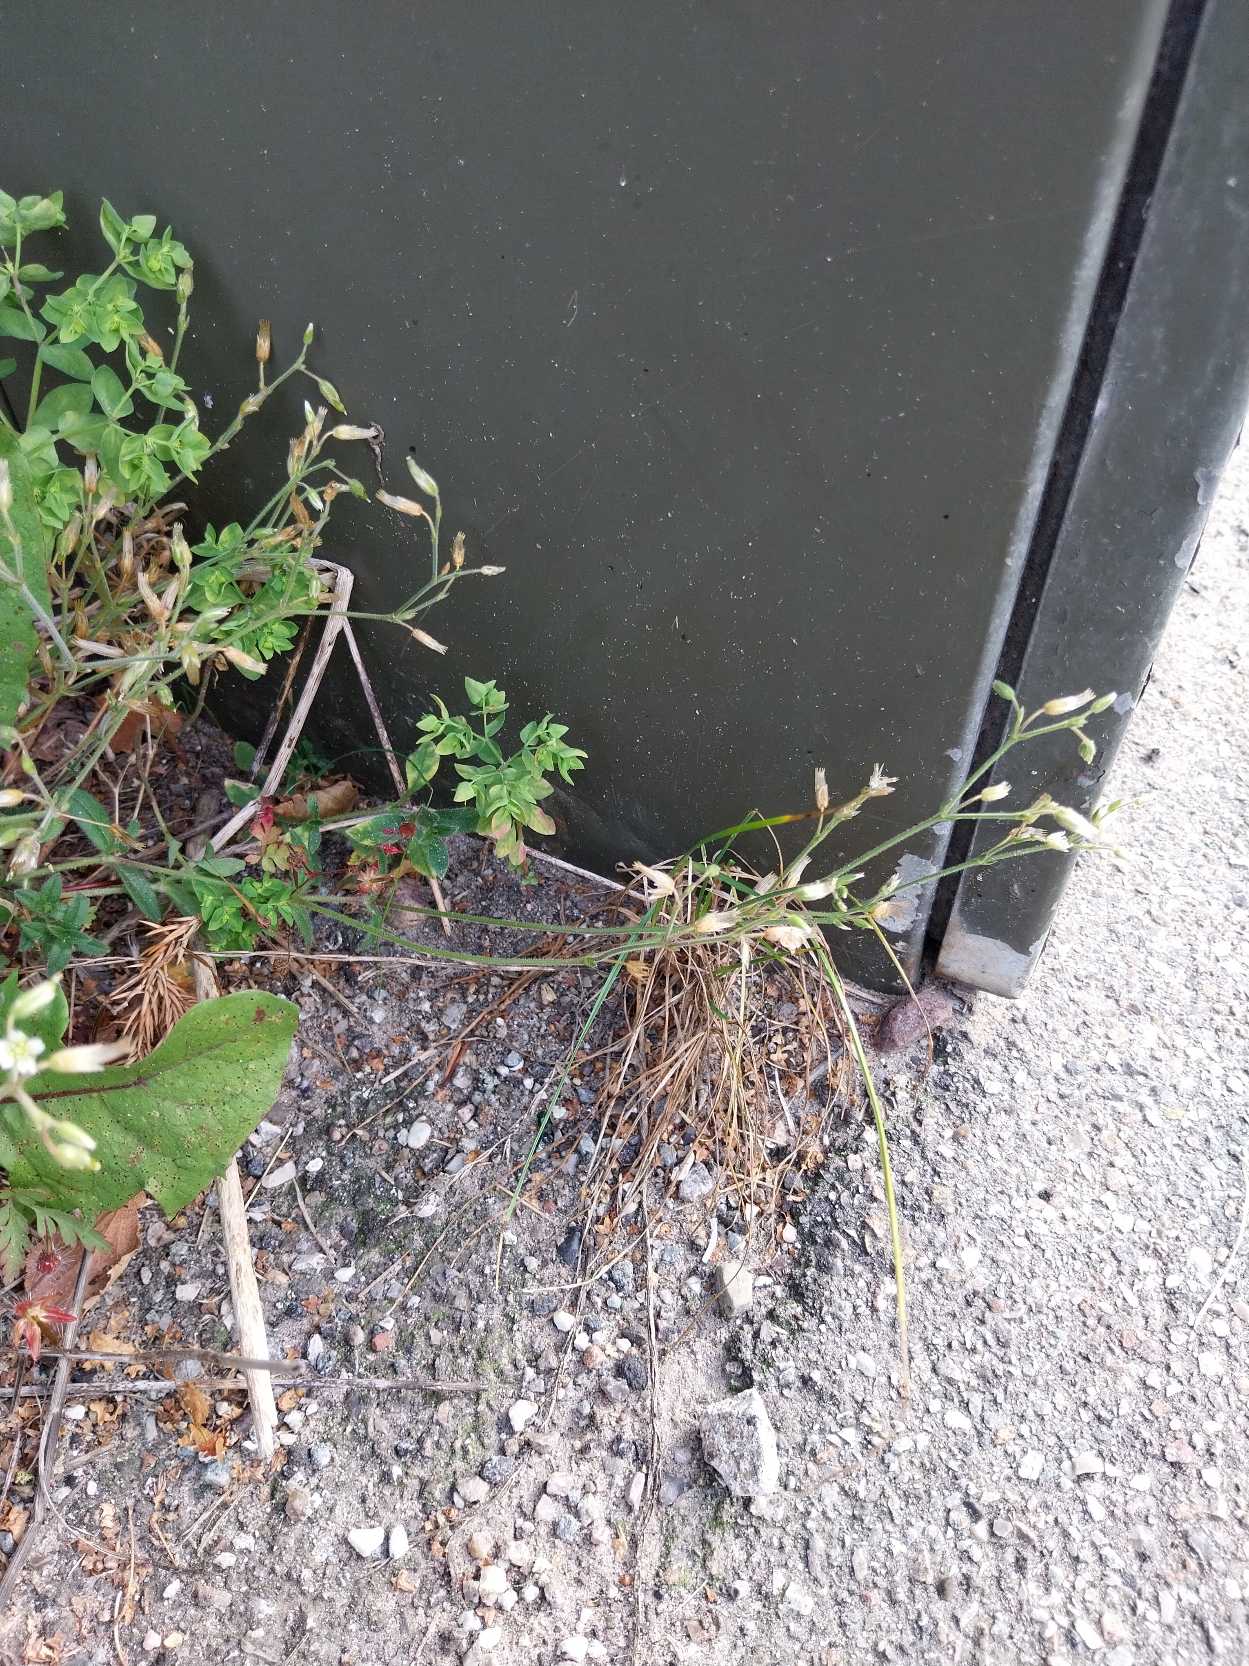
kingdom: Plantae
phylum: Tracheophyta
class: Magnoliopsida
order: Caryophyllales
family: Caryophyllaceae
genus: Cerastium
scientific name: Cerastium fontanum
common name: Almindelig hønsetarm
